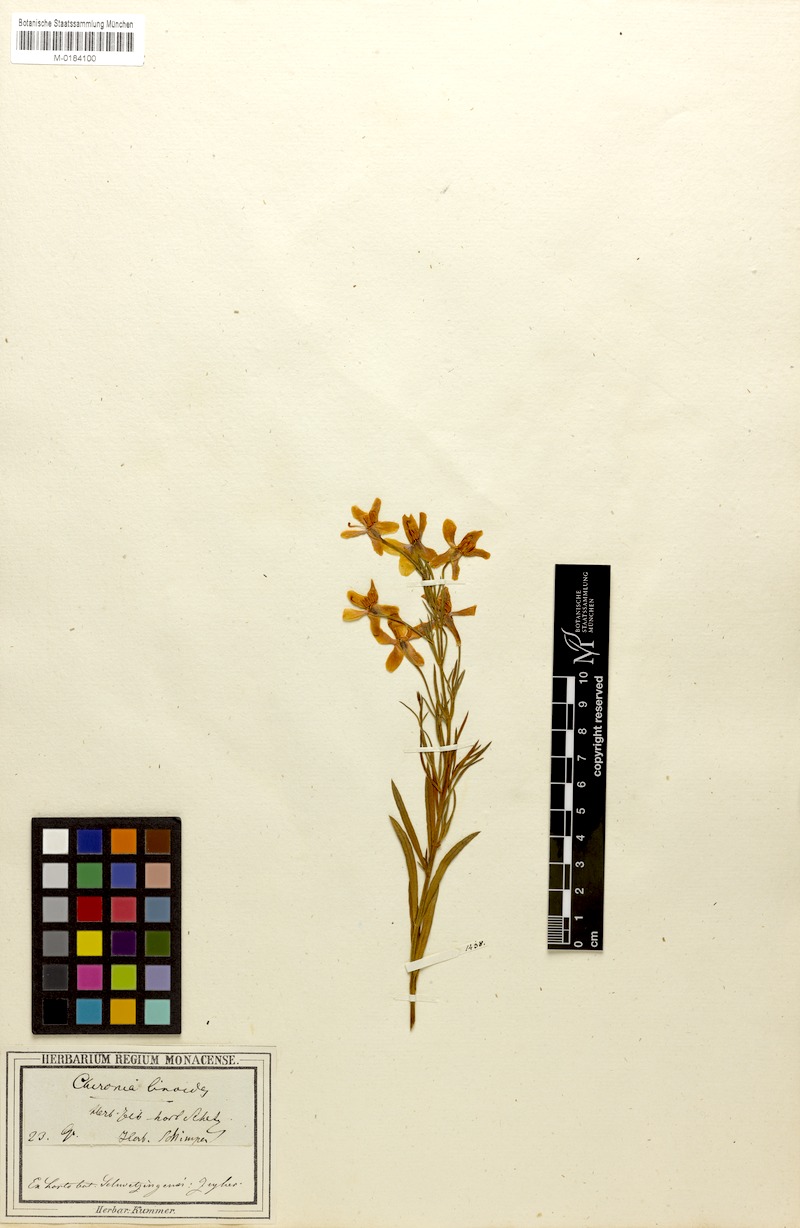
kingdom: Plantae
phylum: Tracheophyta
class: Magnoliopsida
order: Gentianales
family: Gentianaceae
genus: Chironia
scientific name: Chironia linoides
